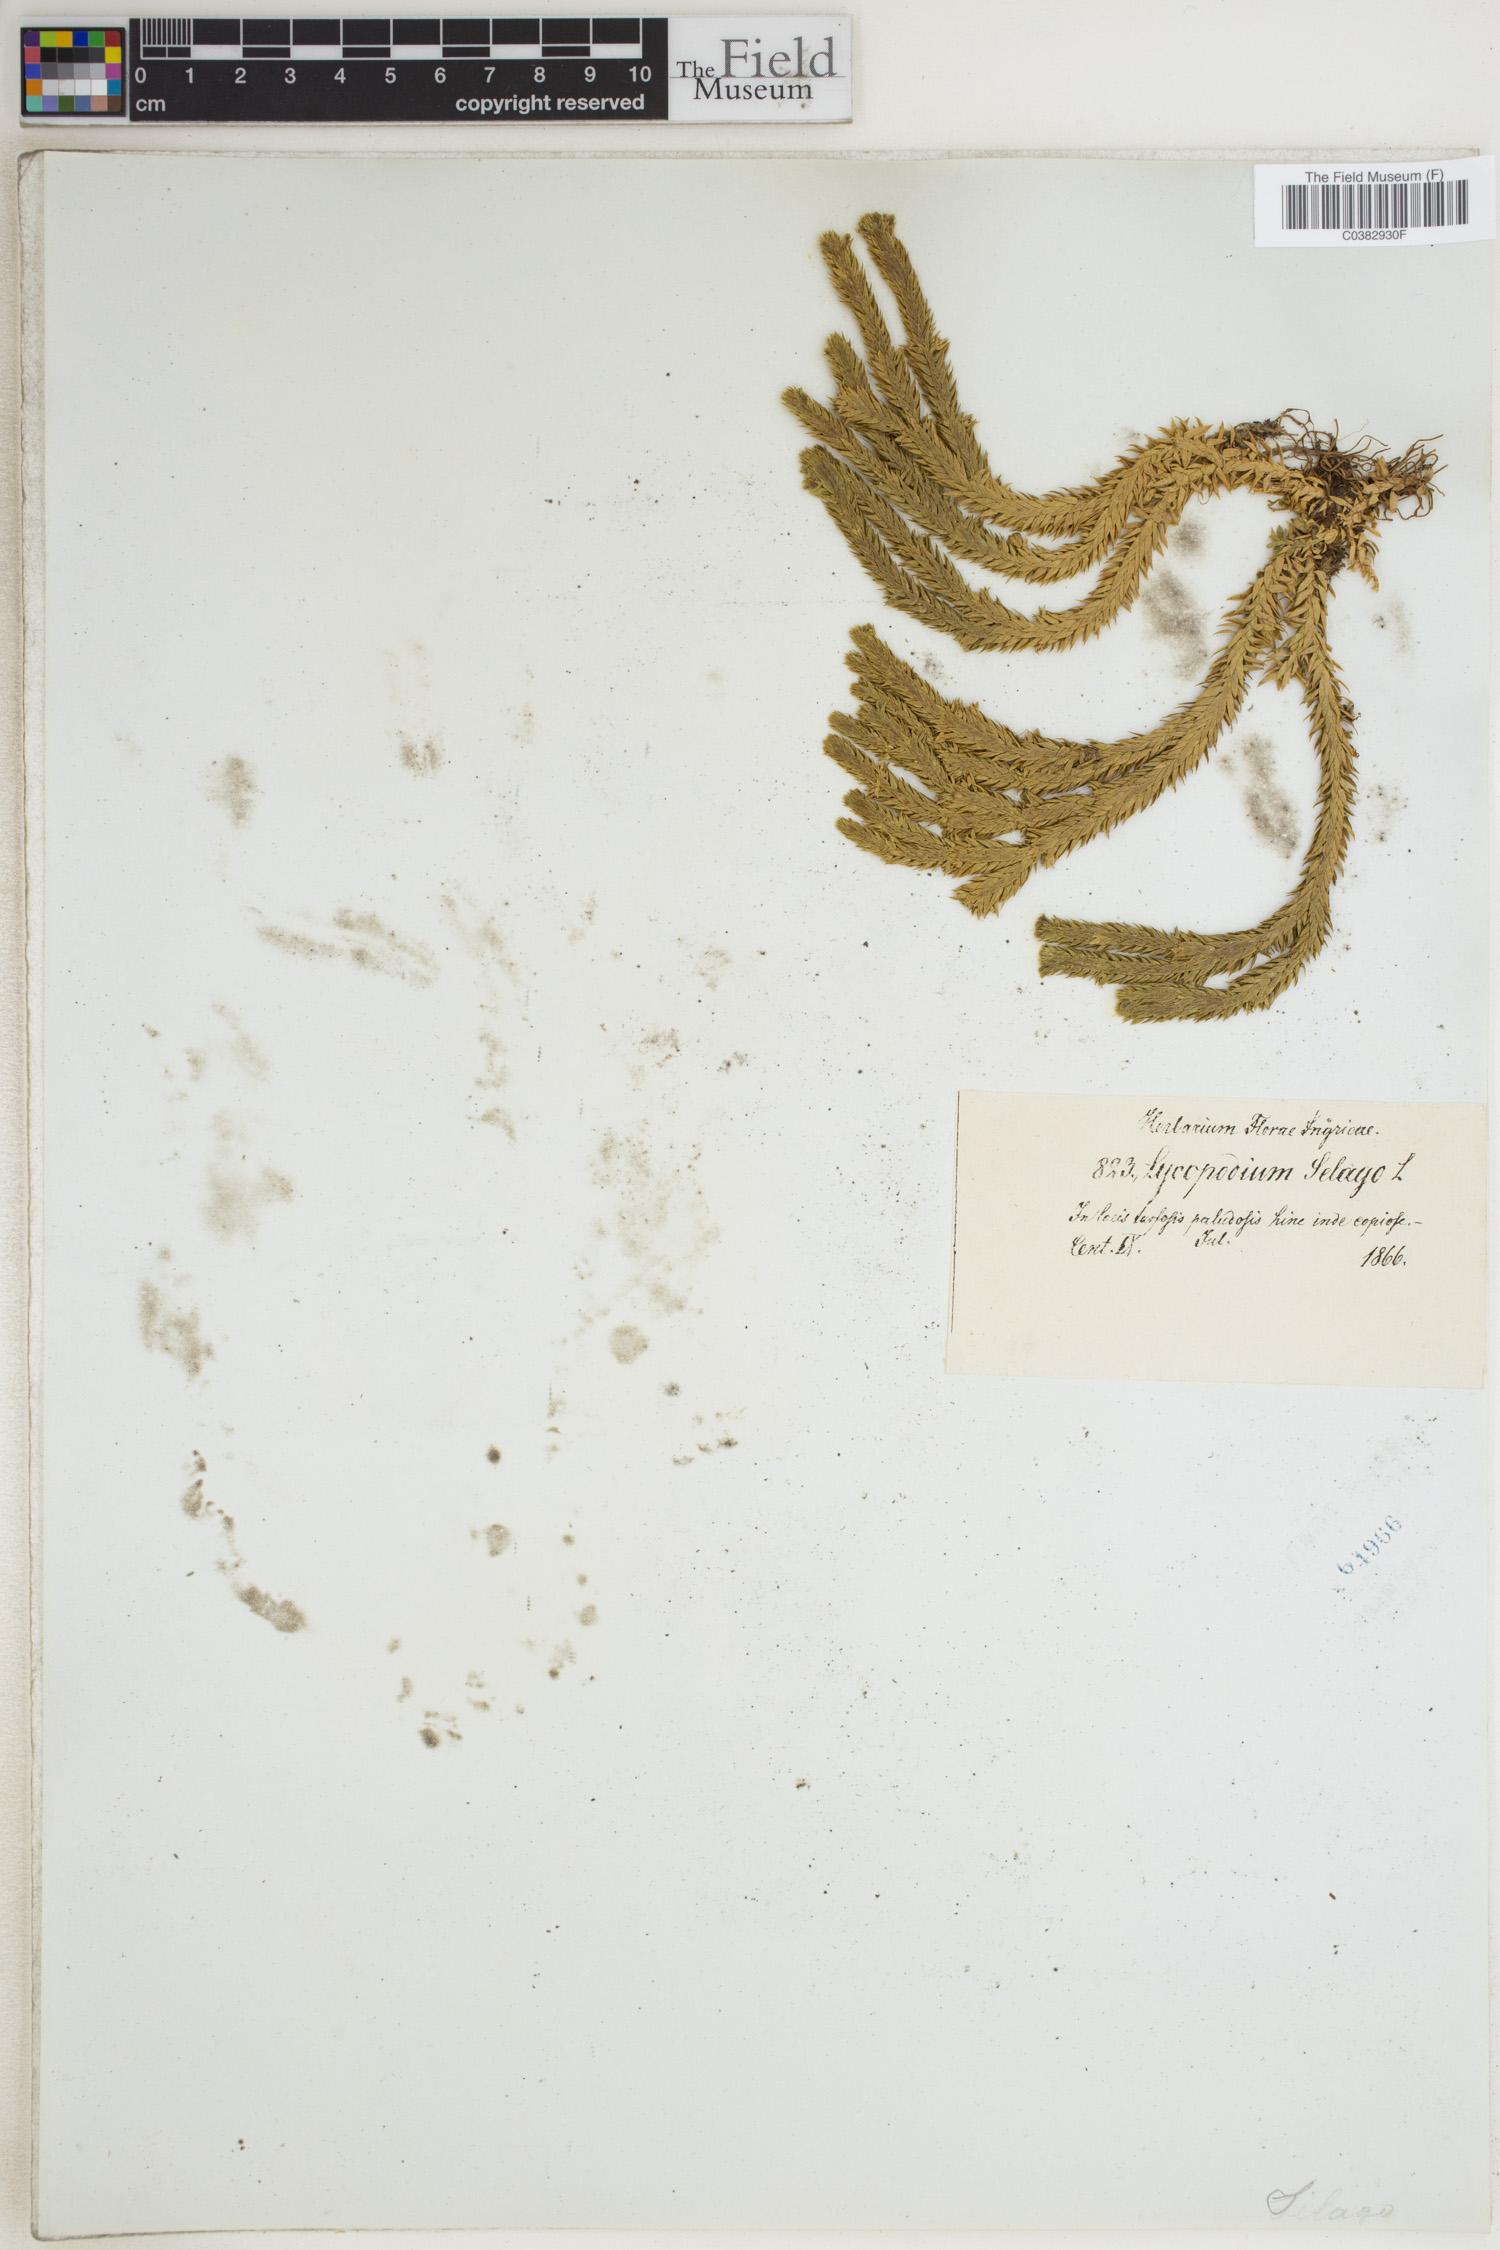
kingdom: Plantae
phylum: Tracheophyta
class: Lycopodiopsida
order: Lycopodiales
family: Lycopodiaceae
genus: Huperzia
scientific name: Huperzia selago
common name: Northern firmoss
